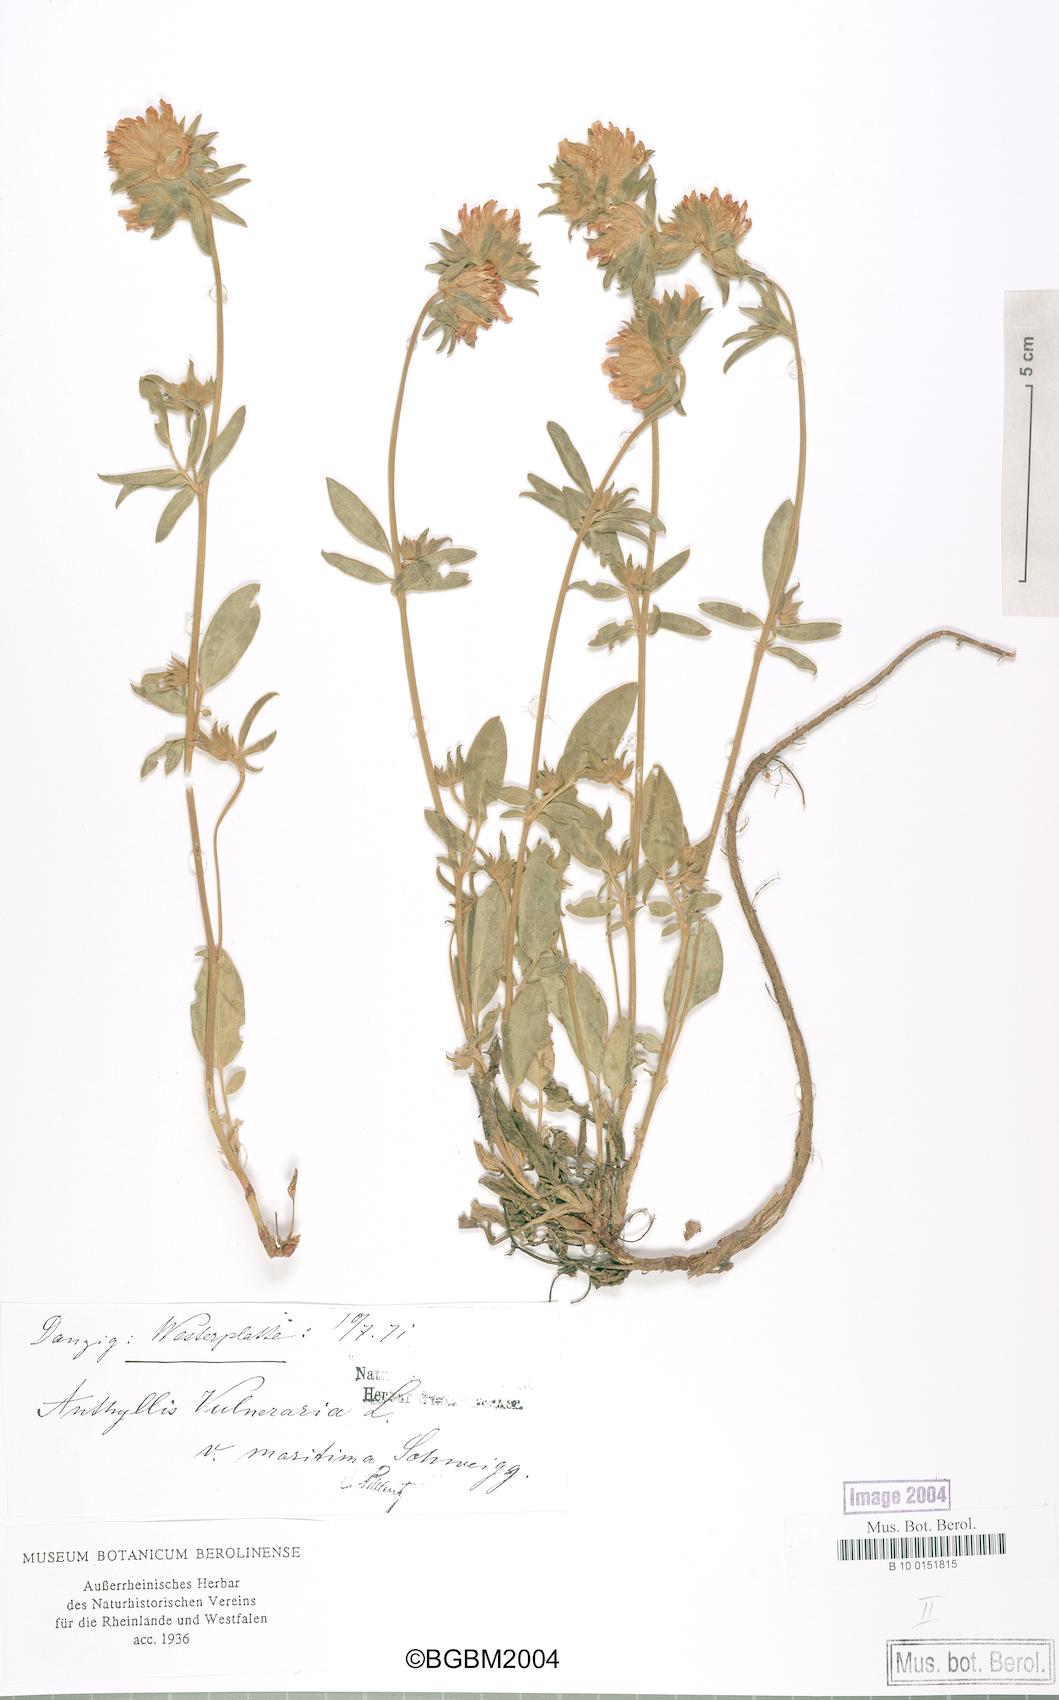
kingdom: Plantae
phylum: Tracheophyta
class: Magnoliopsida
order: Fabales
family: Fabaceae
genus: Anthyllis
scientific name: Anthyllis vulneraria
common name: Kidney vetch
